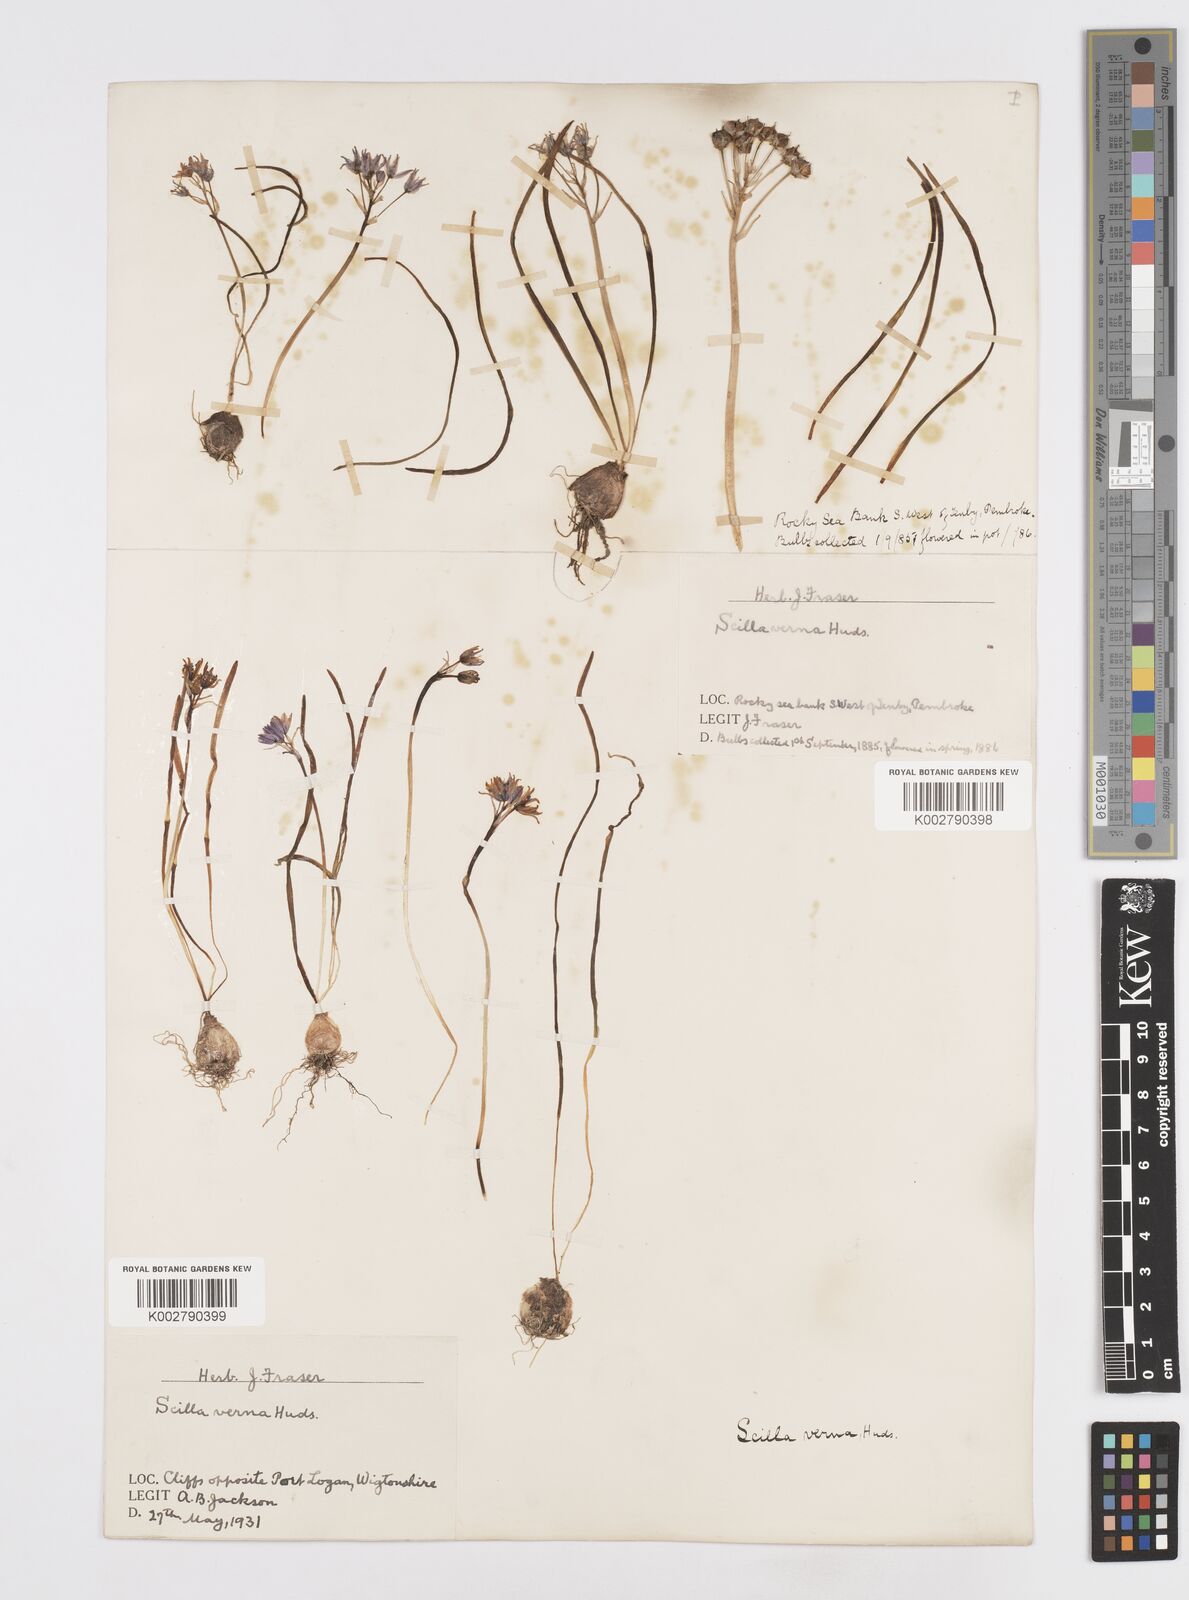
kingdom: Plantae
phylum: Tracheophyta
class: Liliopsida
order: Asparagales
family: Asparagaceae
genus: Scilla
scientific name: Scilla verna
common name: Spring squill
